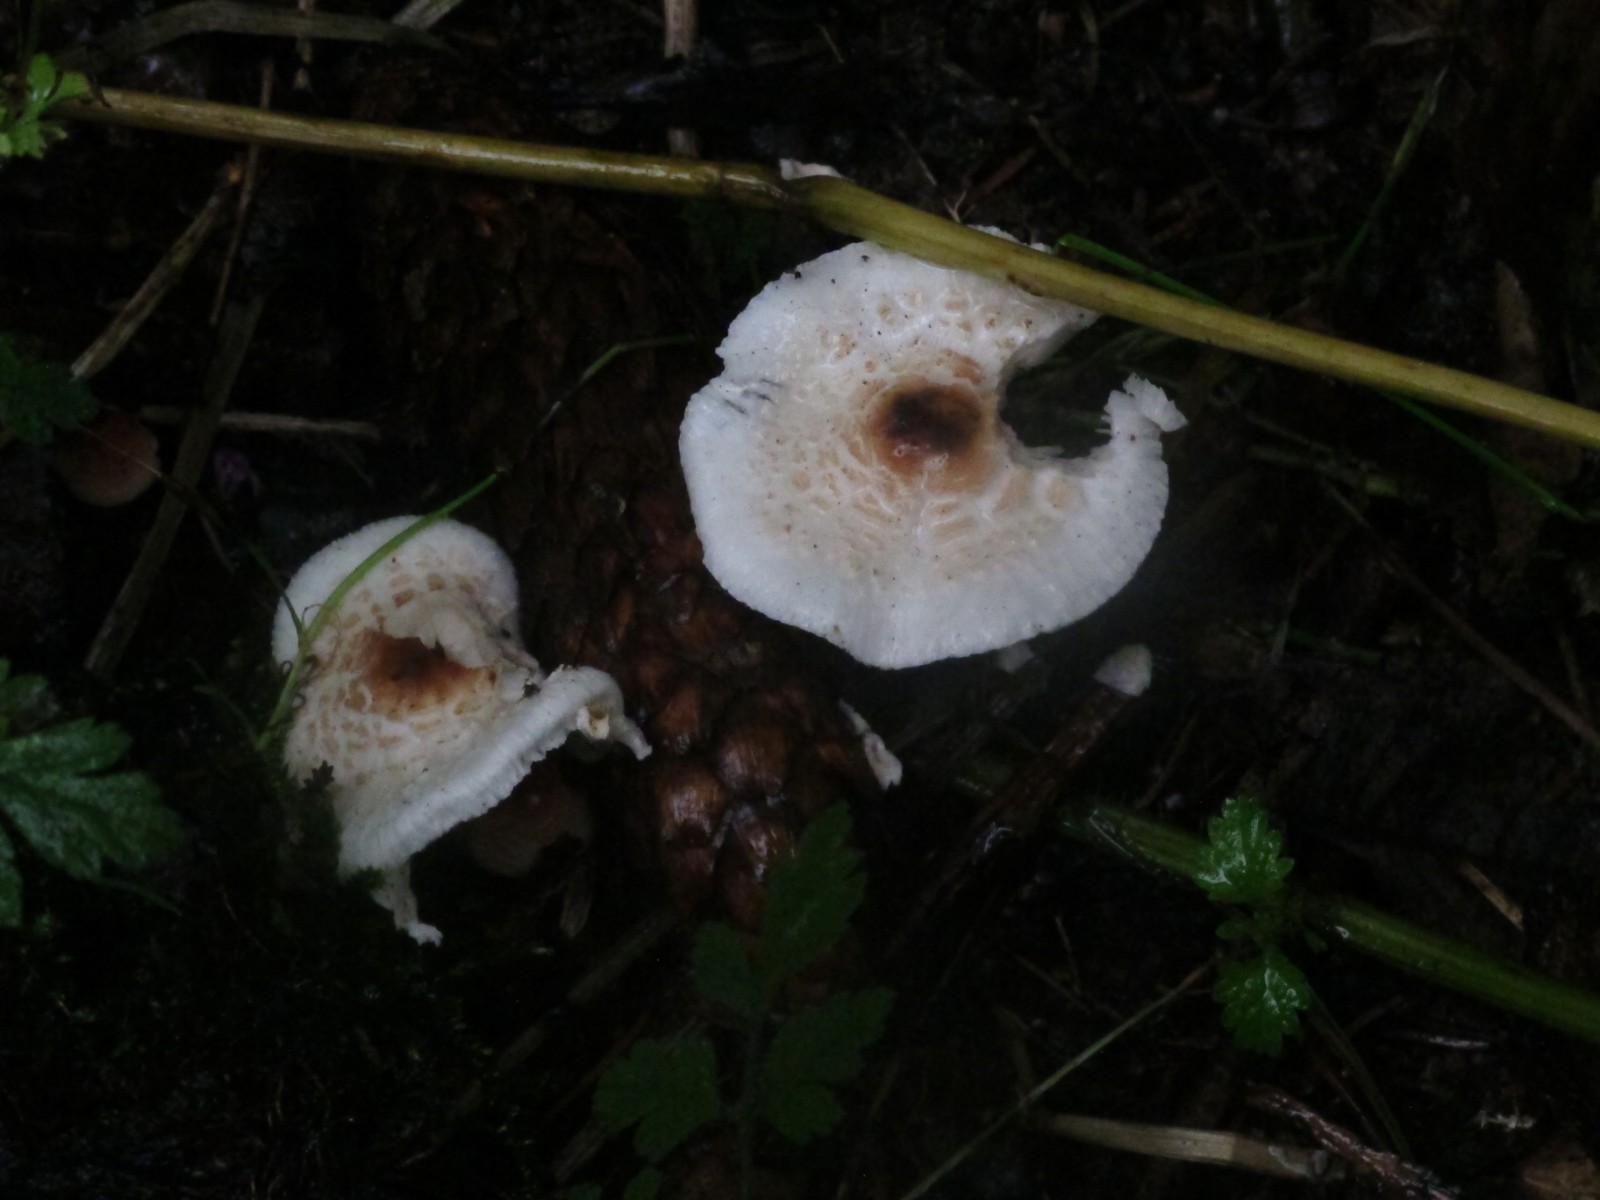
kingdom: Fungi
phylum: Basidiomycota
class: Agaricomycetes
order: Agaricales
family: Agaricaceae
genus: Lepiota
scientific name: Lepiota cristata
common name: stinkende parasolhat
